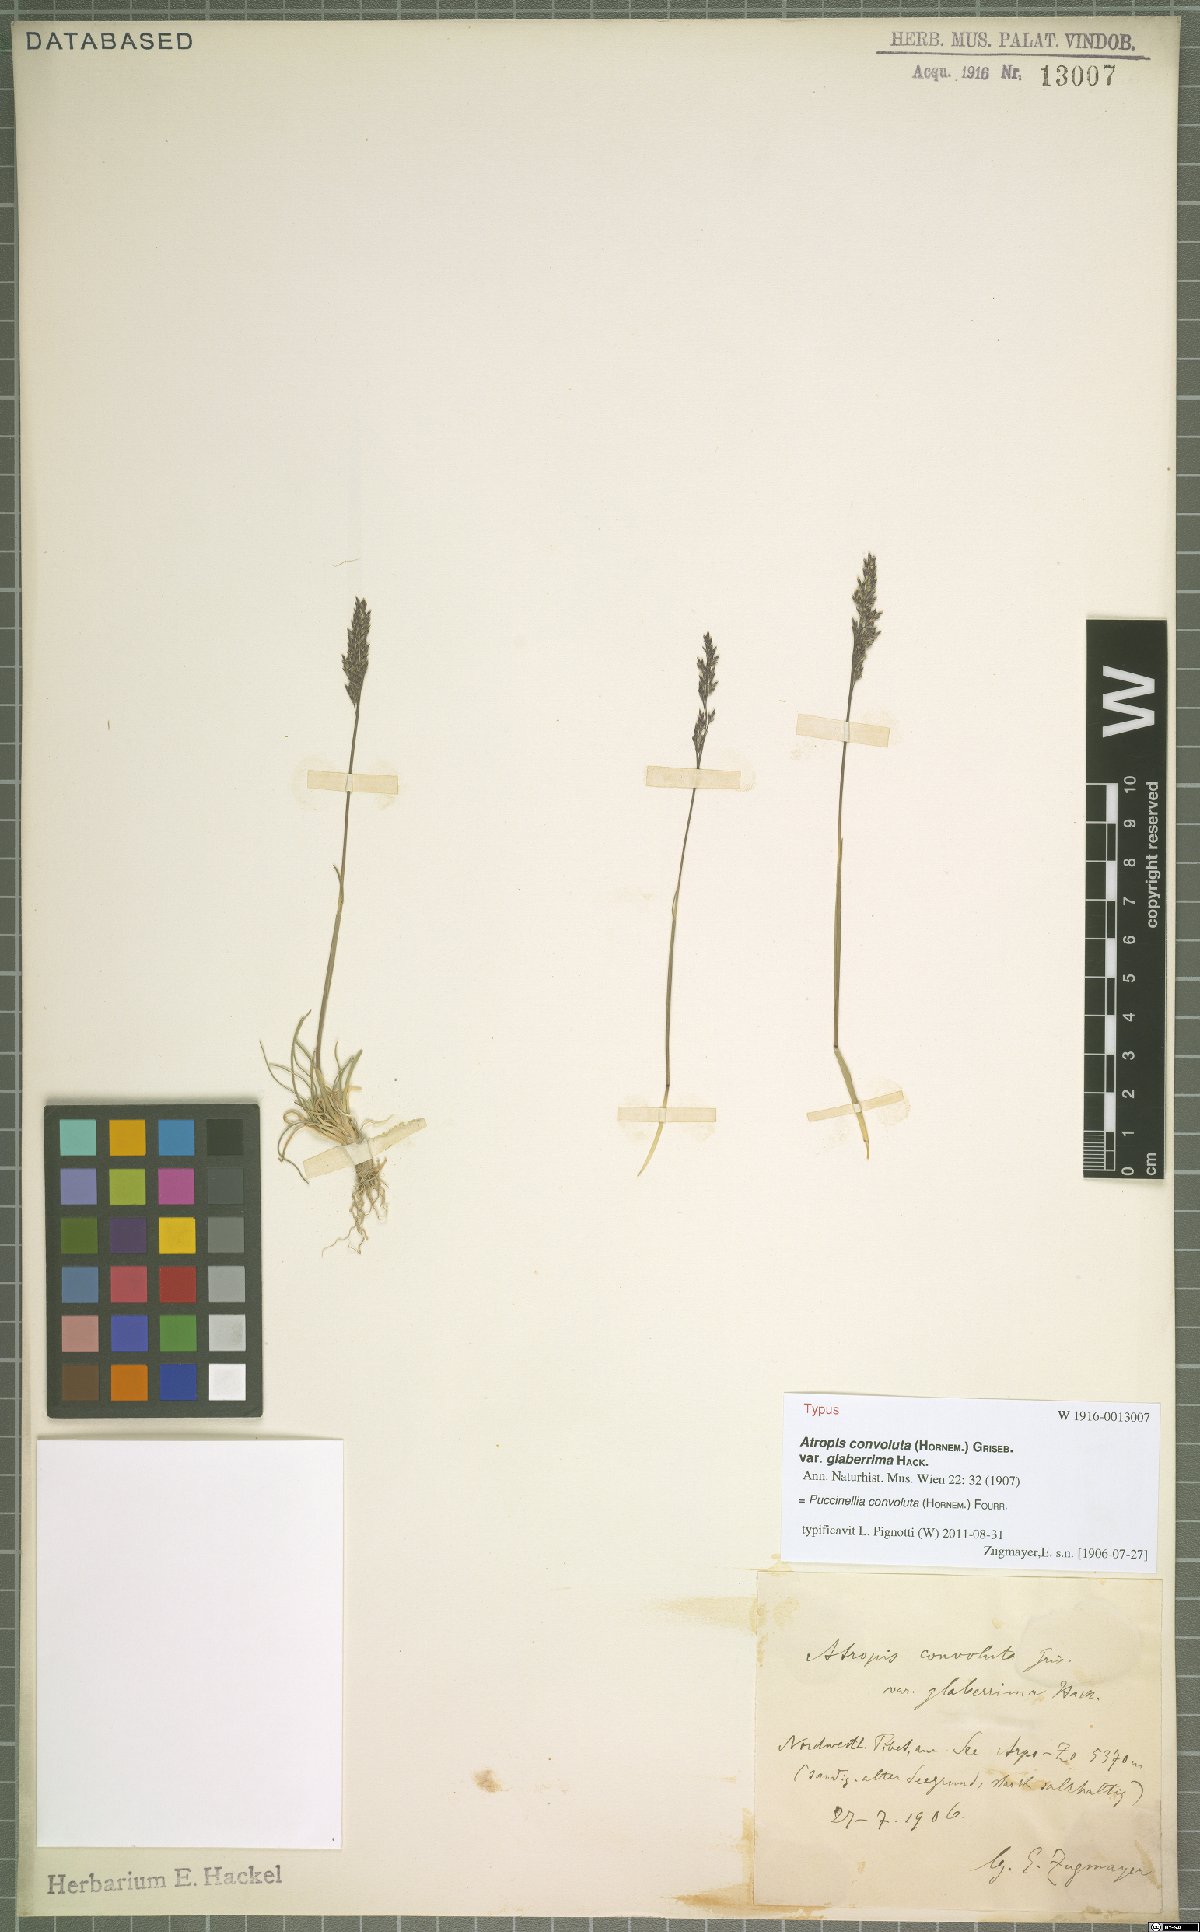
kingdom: Plantae
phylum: Tracheophyta
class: Liliopsida
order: Poales
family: Poaceae
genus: Puccinellia
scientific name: Puccinellia convoluta
